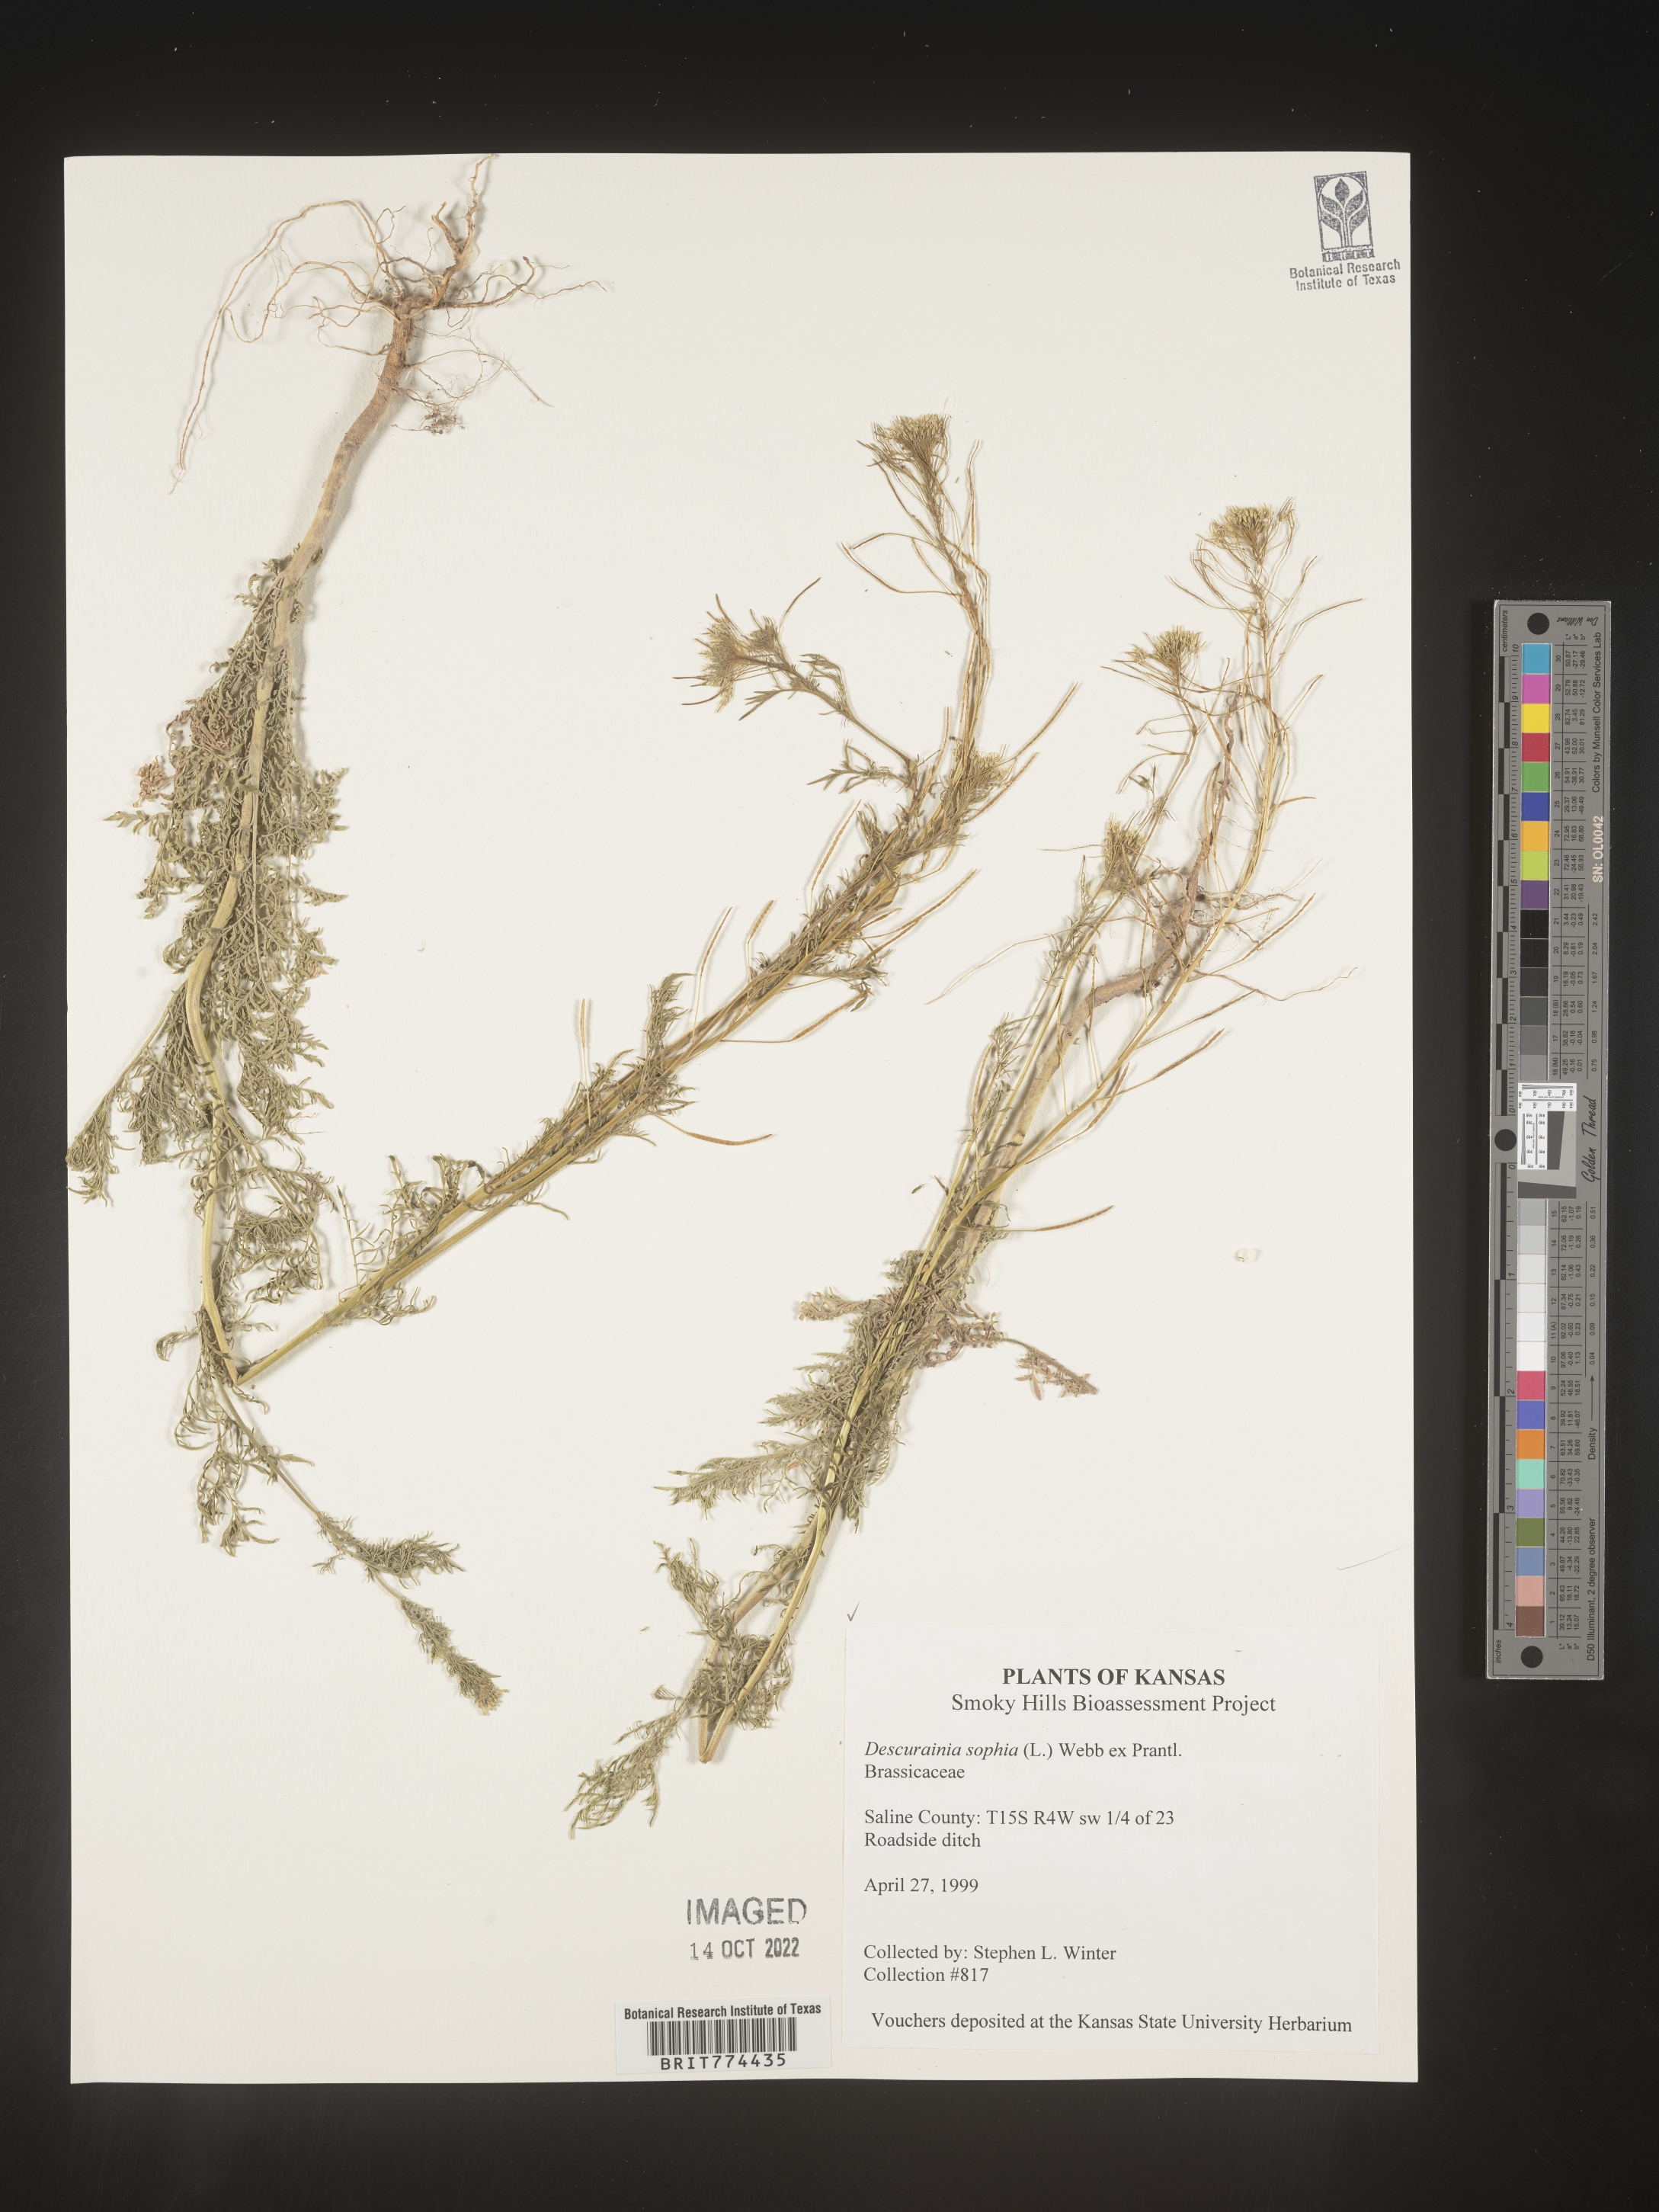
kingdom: Plantae
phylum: Tracheophyta
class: Magnoliopsida
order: Brassicales
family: Brassicaceae
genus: Descurainia
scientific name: Descurainia sophia
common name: Flixweed
